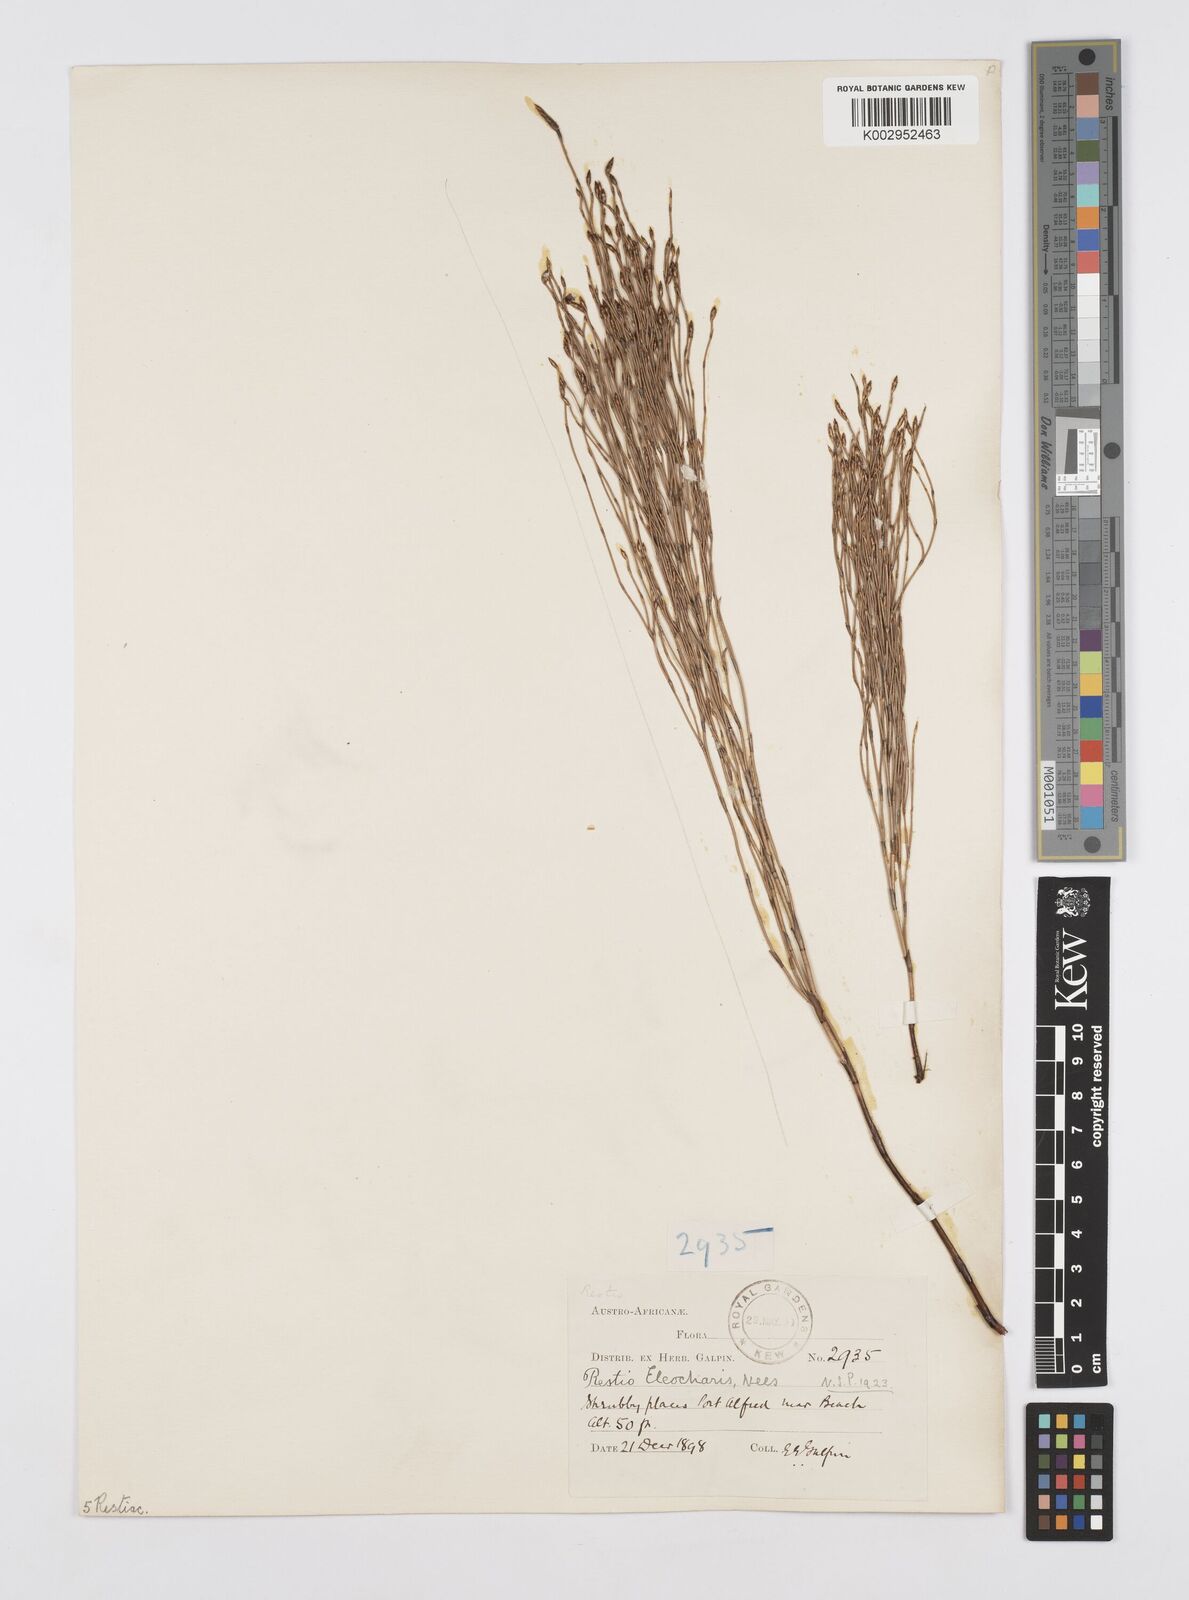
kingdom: Plantae
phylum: Tracheophyta
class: Liliopsida
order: Poales
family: Restionaceae
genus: Restio
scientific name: Restio eleocharis
